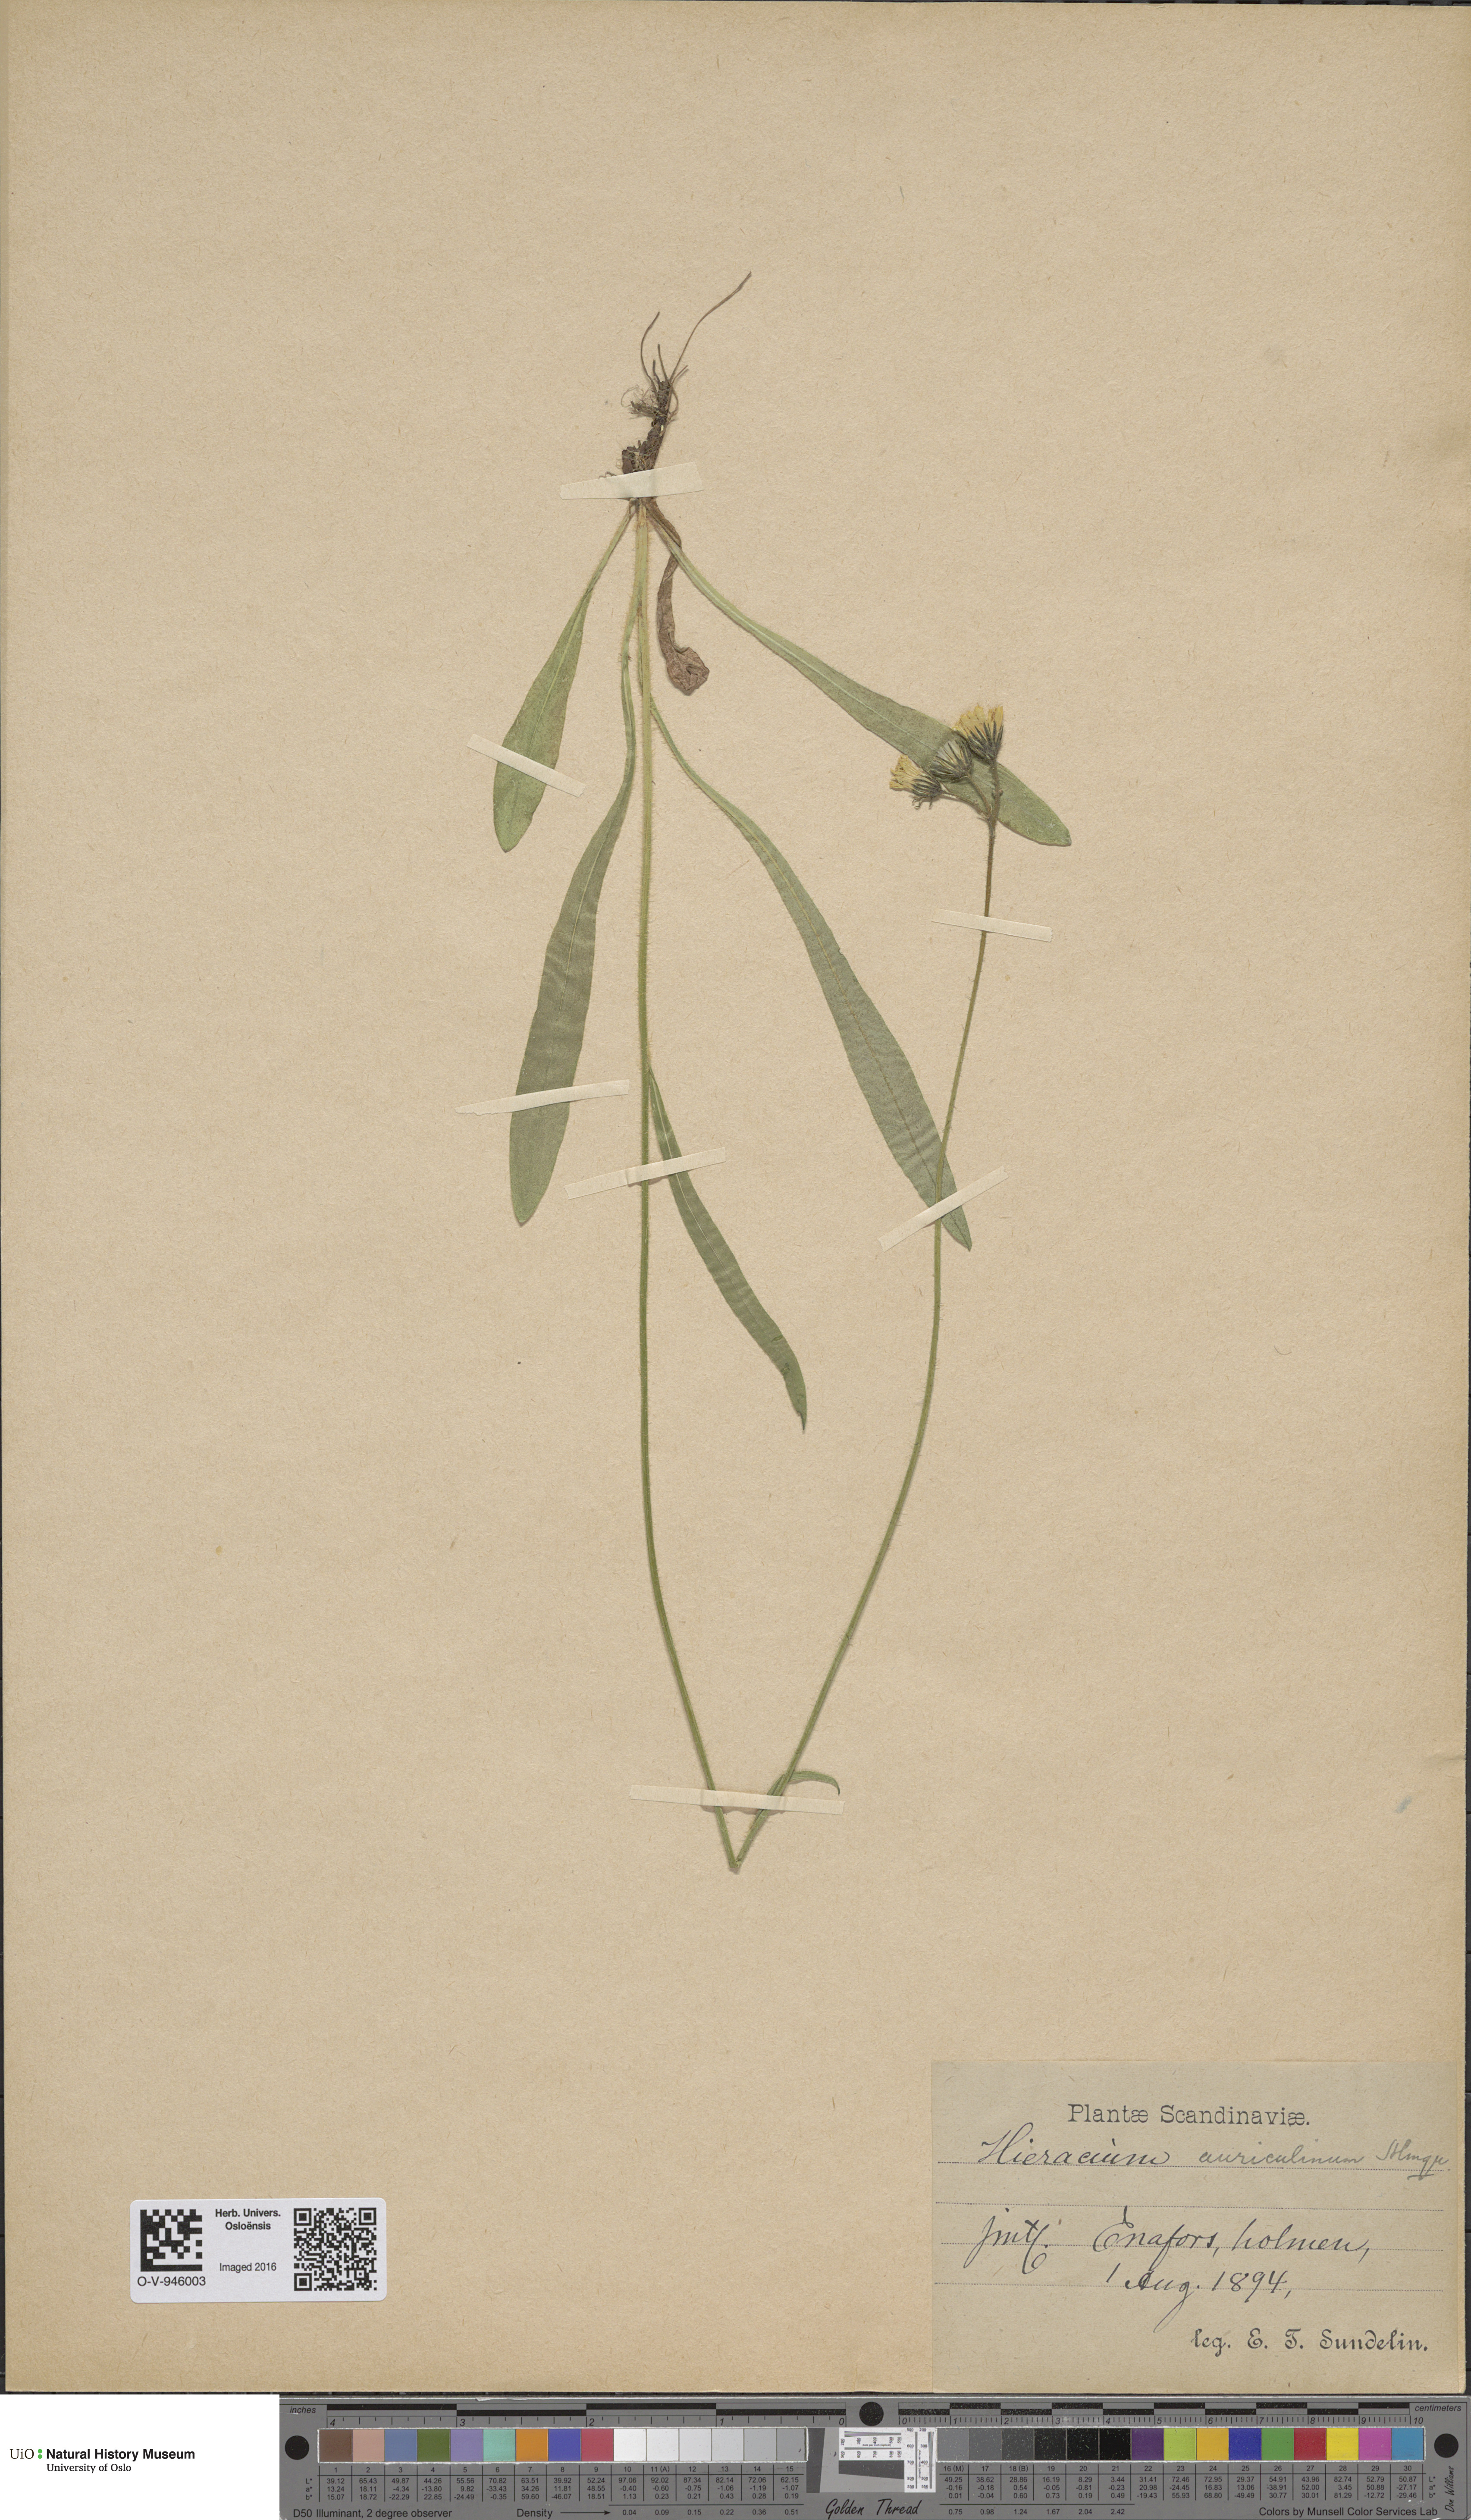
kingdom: Plantae
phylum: Tracheophyta
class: Magnoliopsida
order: Asterales
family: Asteraceae
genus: Pilosella
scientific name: Pilosella dubia
